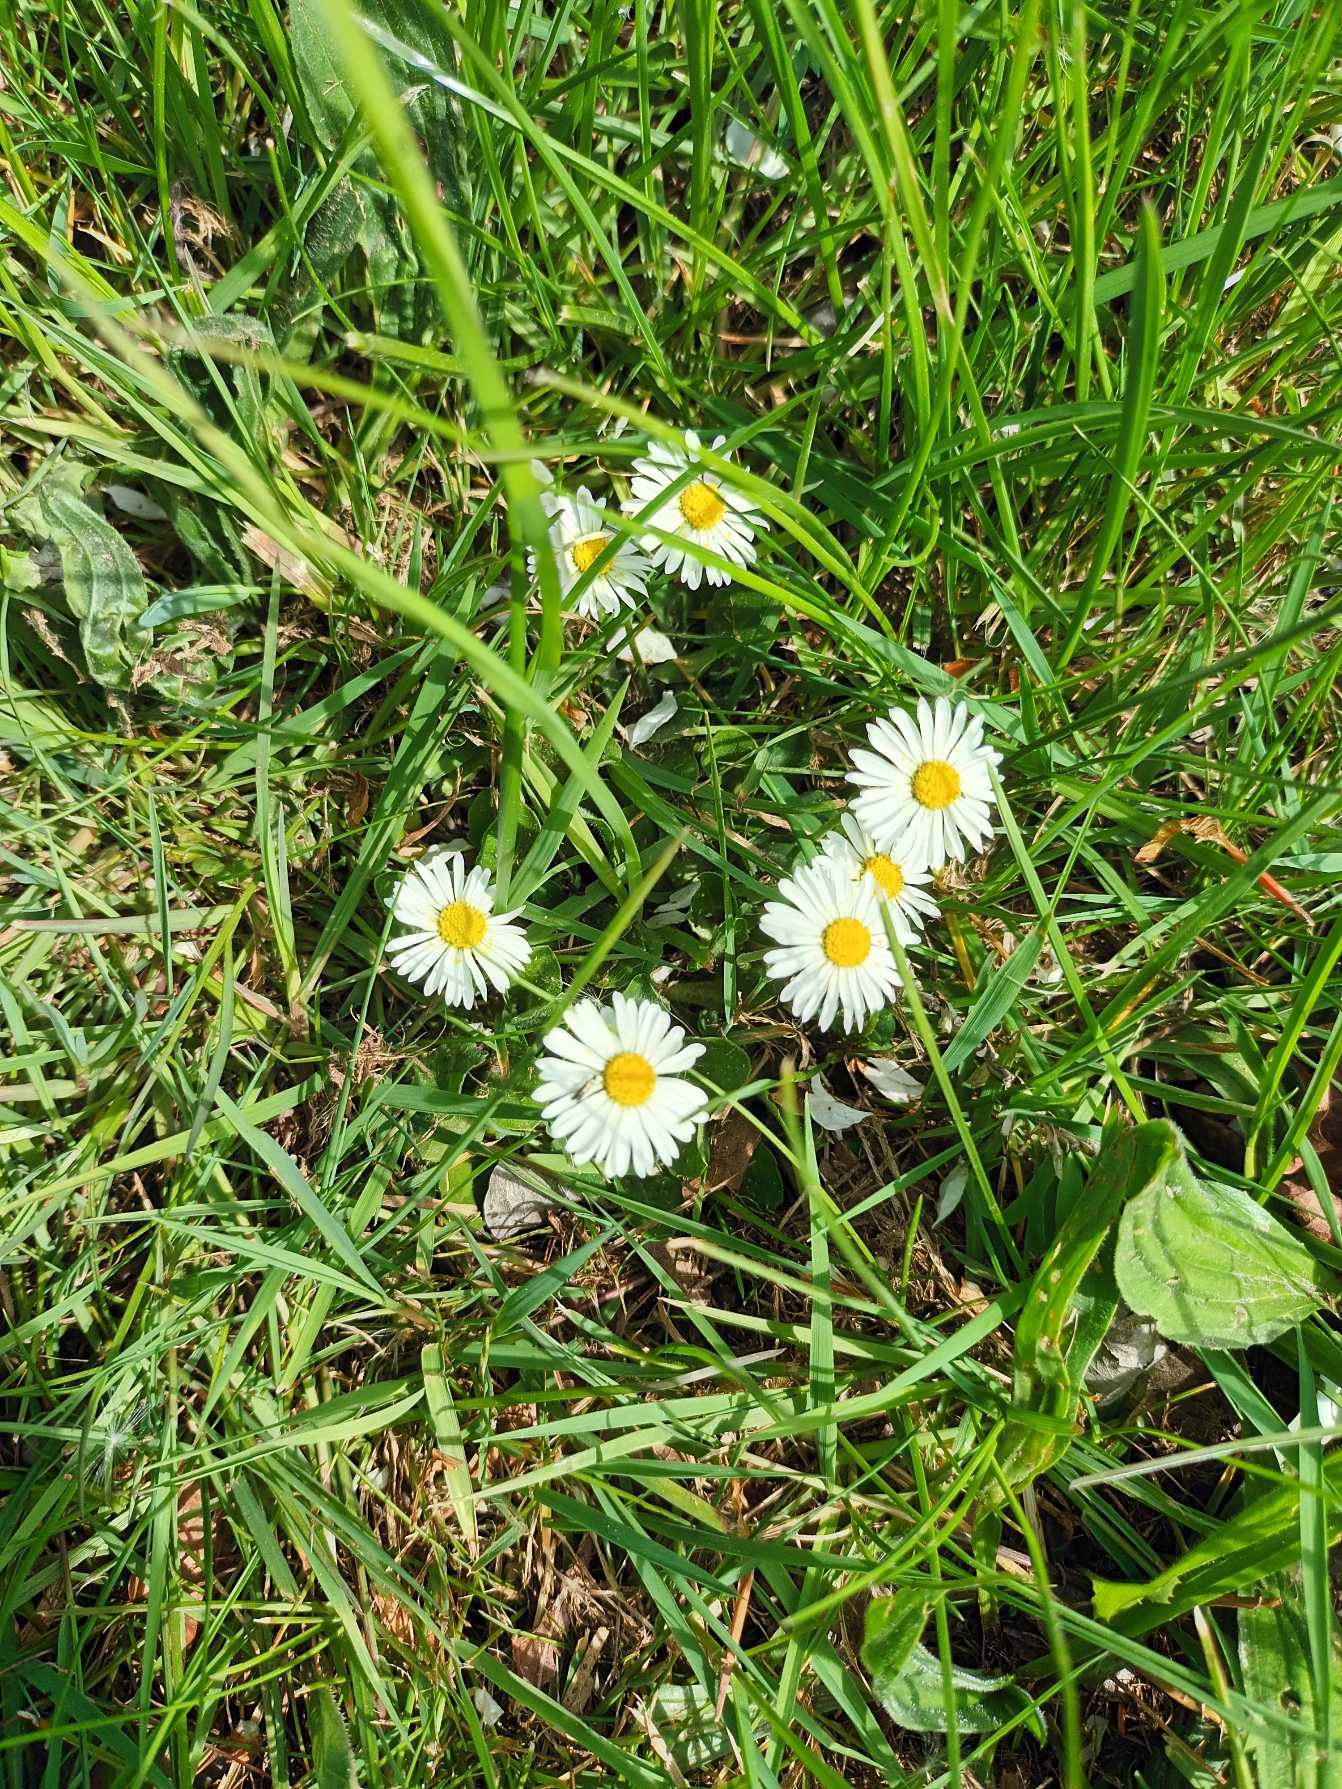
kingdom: Plantae
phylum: Tracheophyta
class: Magnoliopsida
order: Asterales
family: Asteraceae
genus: Bellis
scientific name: Bellis perennis
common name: Tusindfryd
